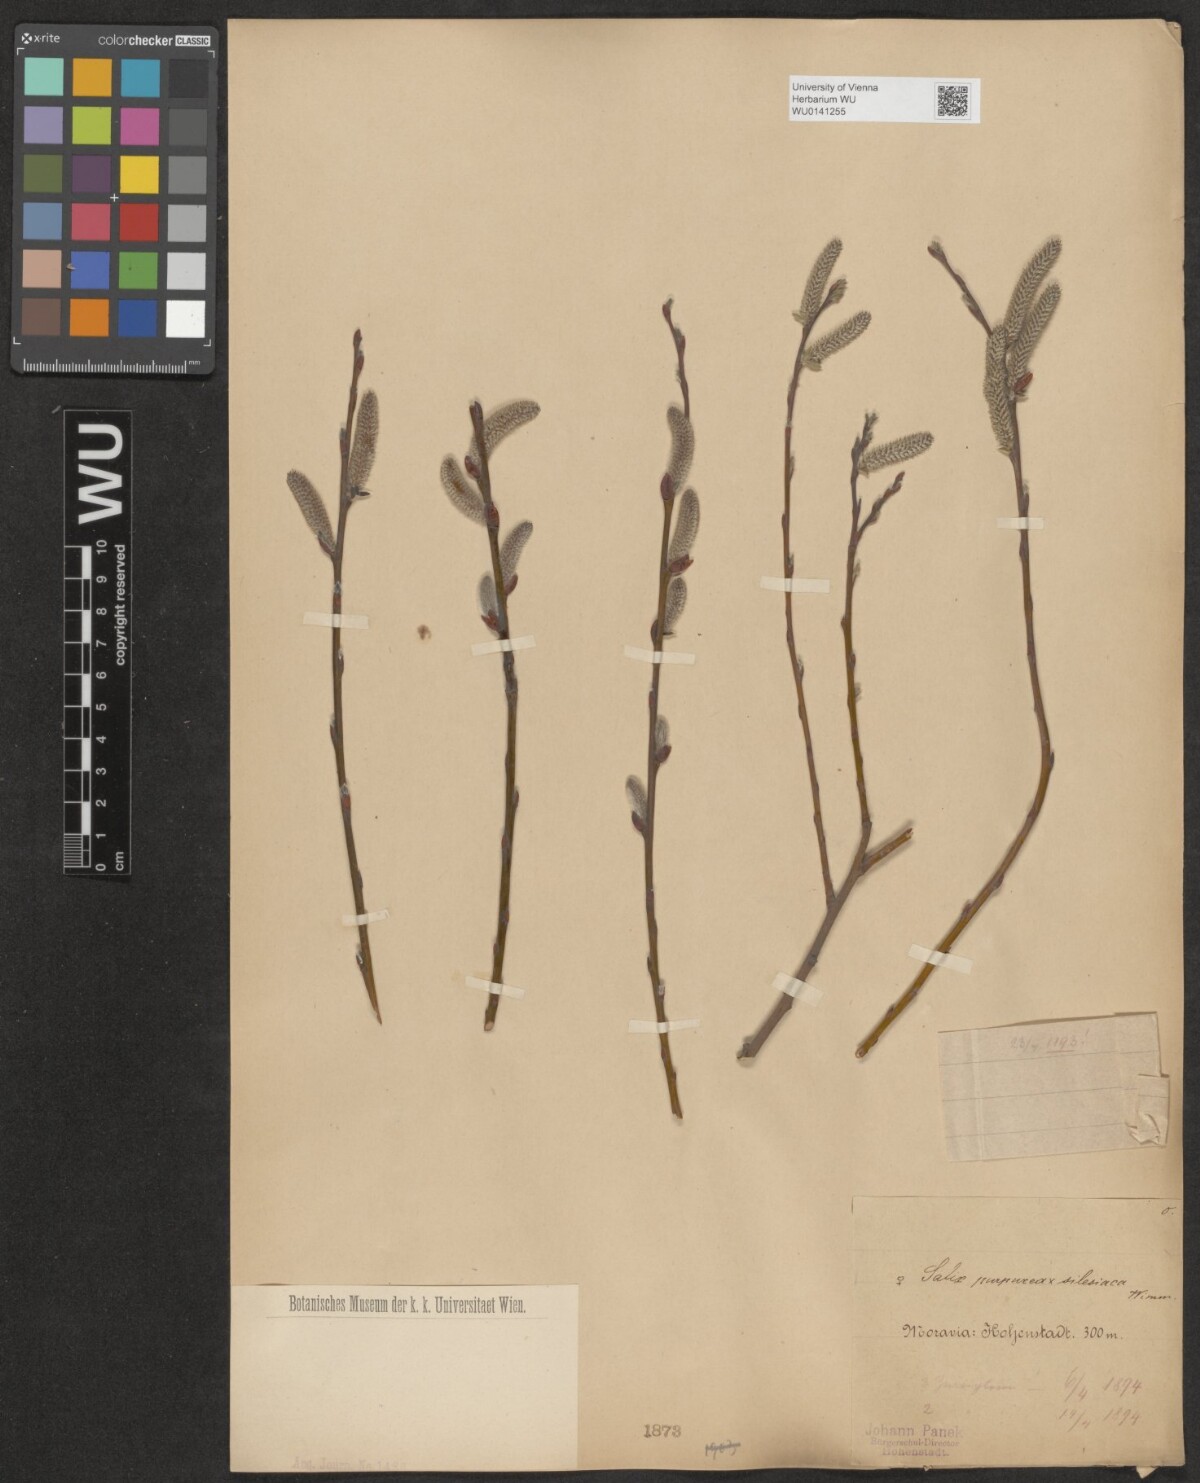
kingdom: Plantae
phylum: Tracheophyta
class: Magnoliopsida
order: Malpighiales
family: Salicaceae
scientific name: Salicaceae
